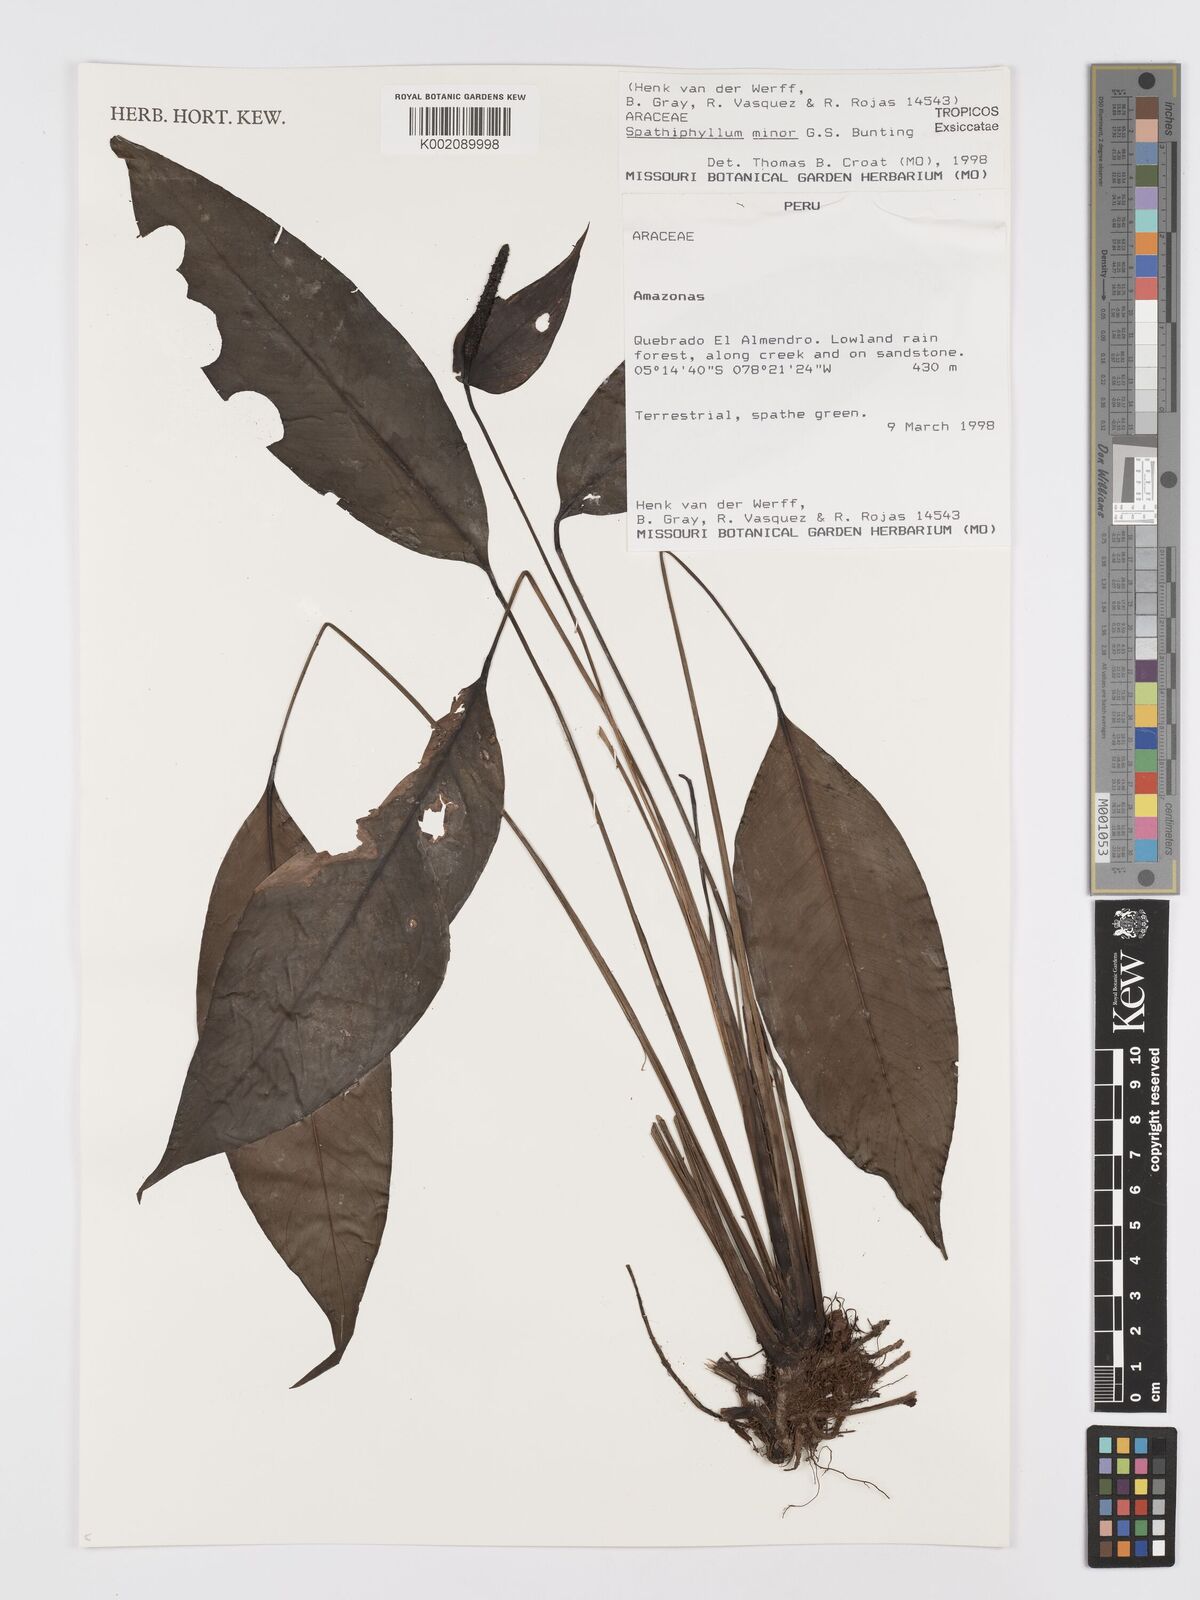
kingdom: Plantae
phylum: Tracheophyta
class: Liliopsida
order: Alismatales
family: Araceae
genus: Spathiphyllum
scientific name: Spathiphyllum minus
